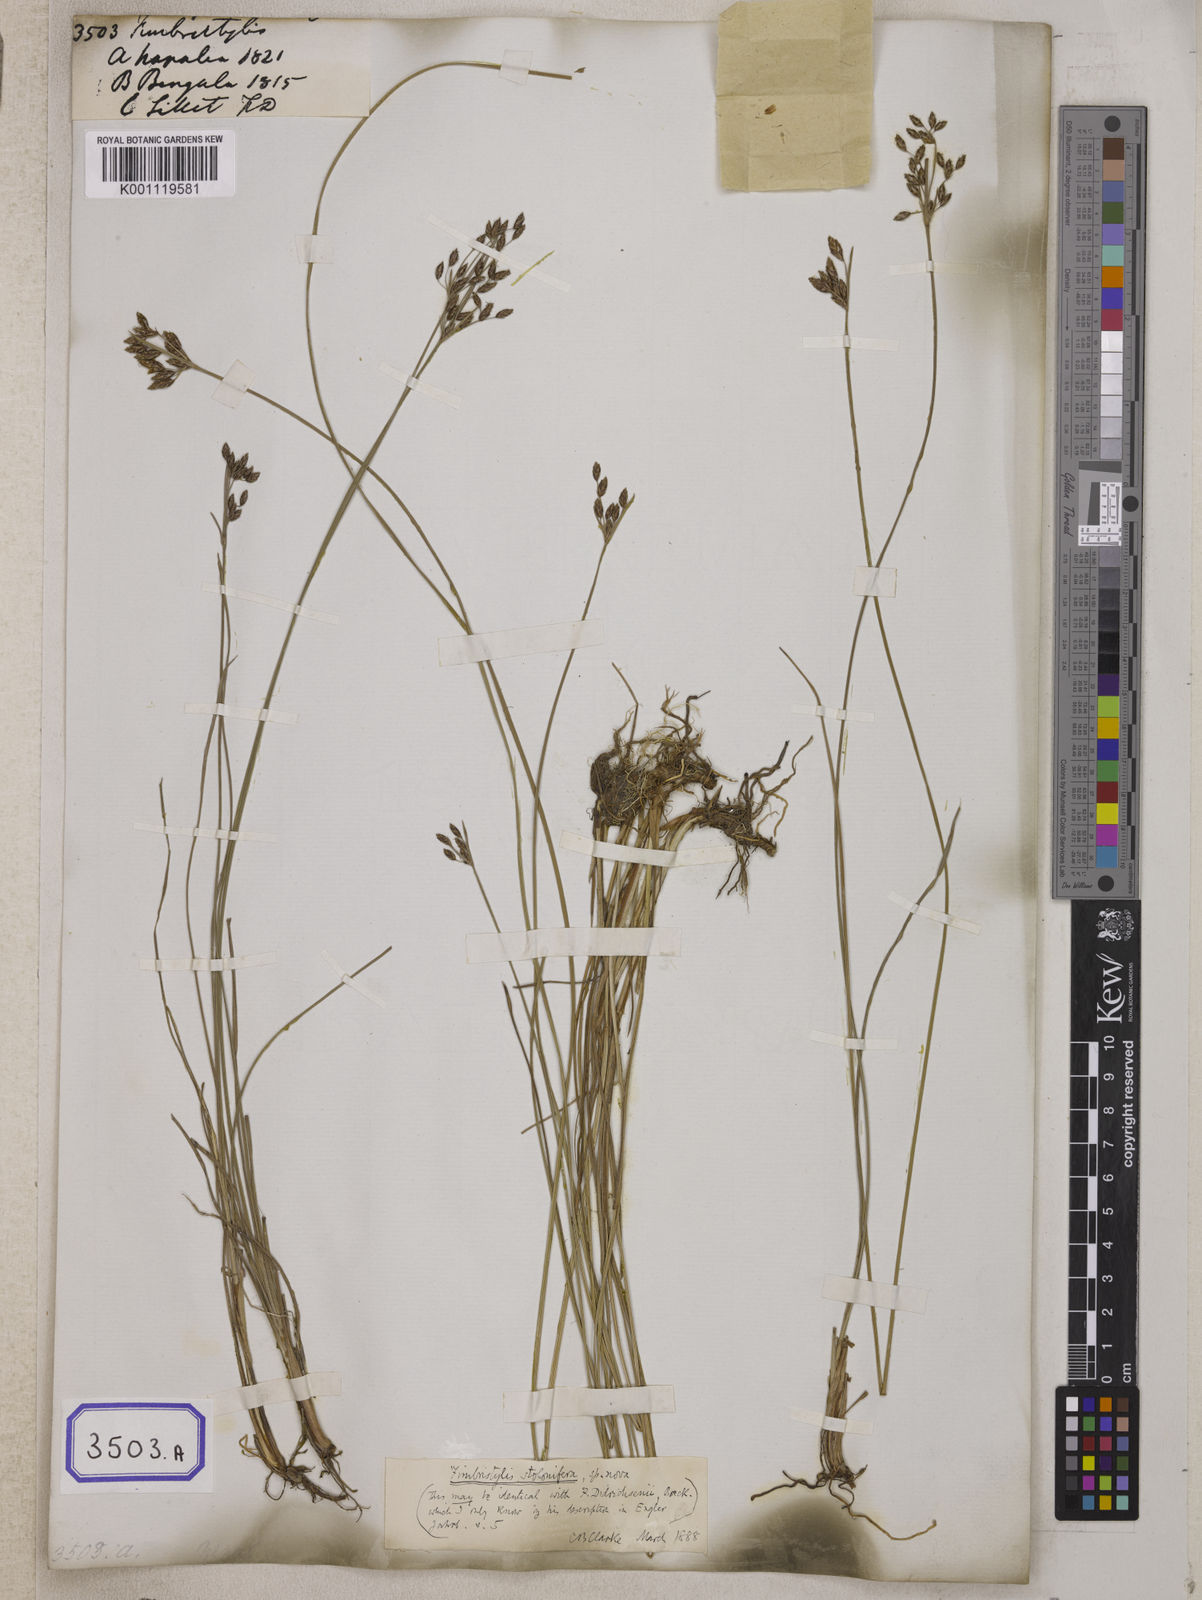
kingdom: Plantae
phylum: Tracheophyta
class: Liliopsida
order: Poales
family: Cyperaceae
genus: Fimbristylis
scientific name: Fimbristylis
